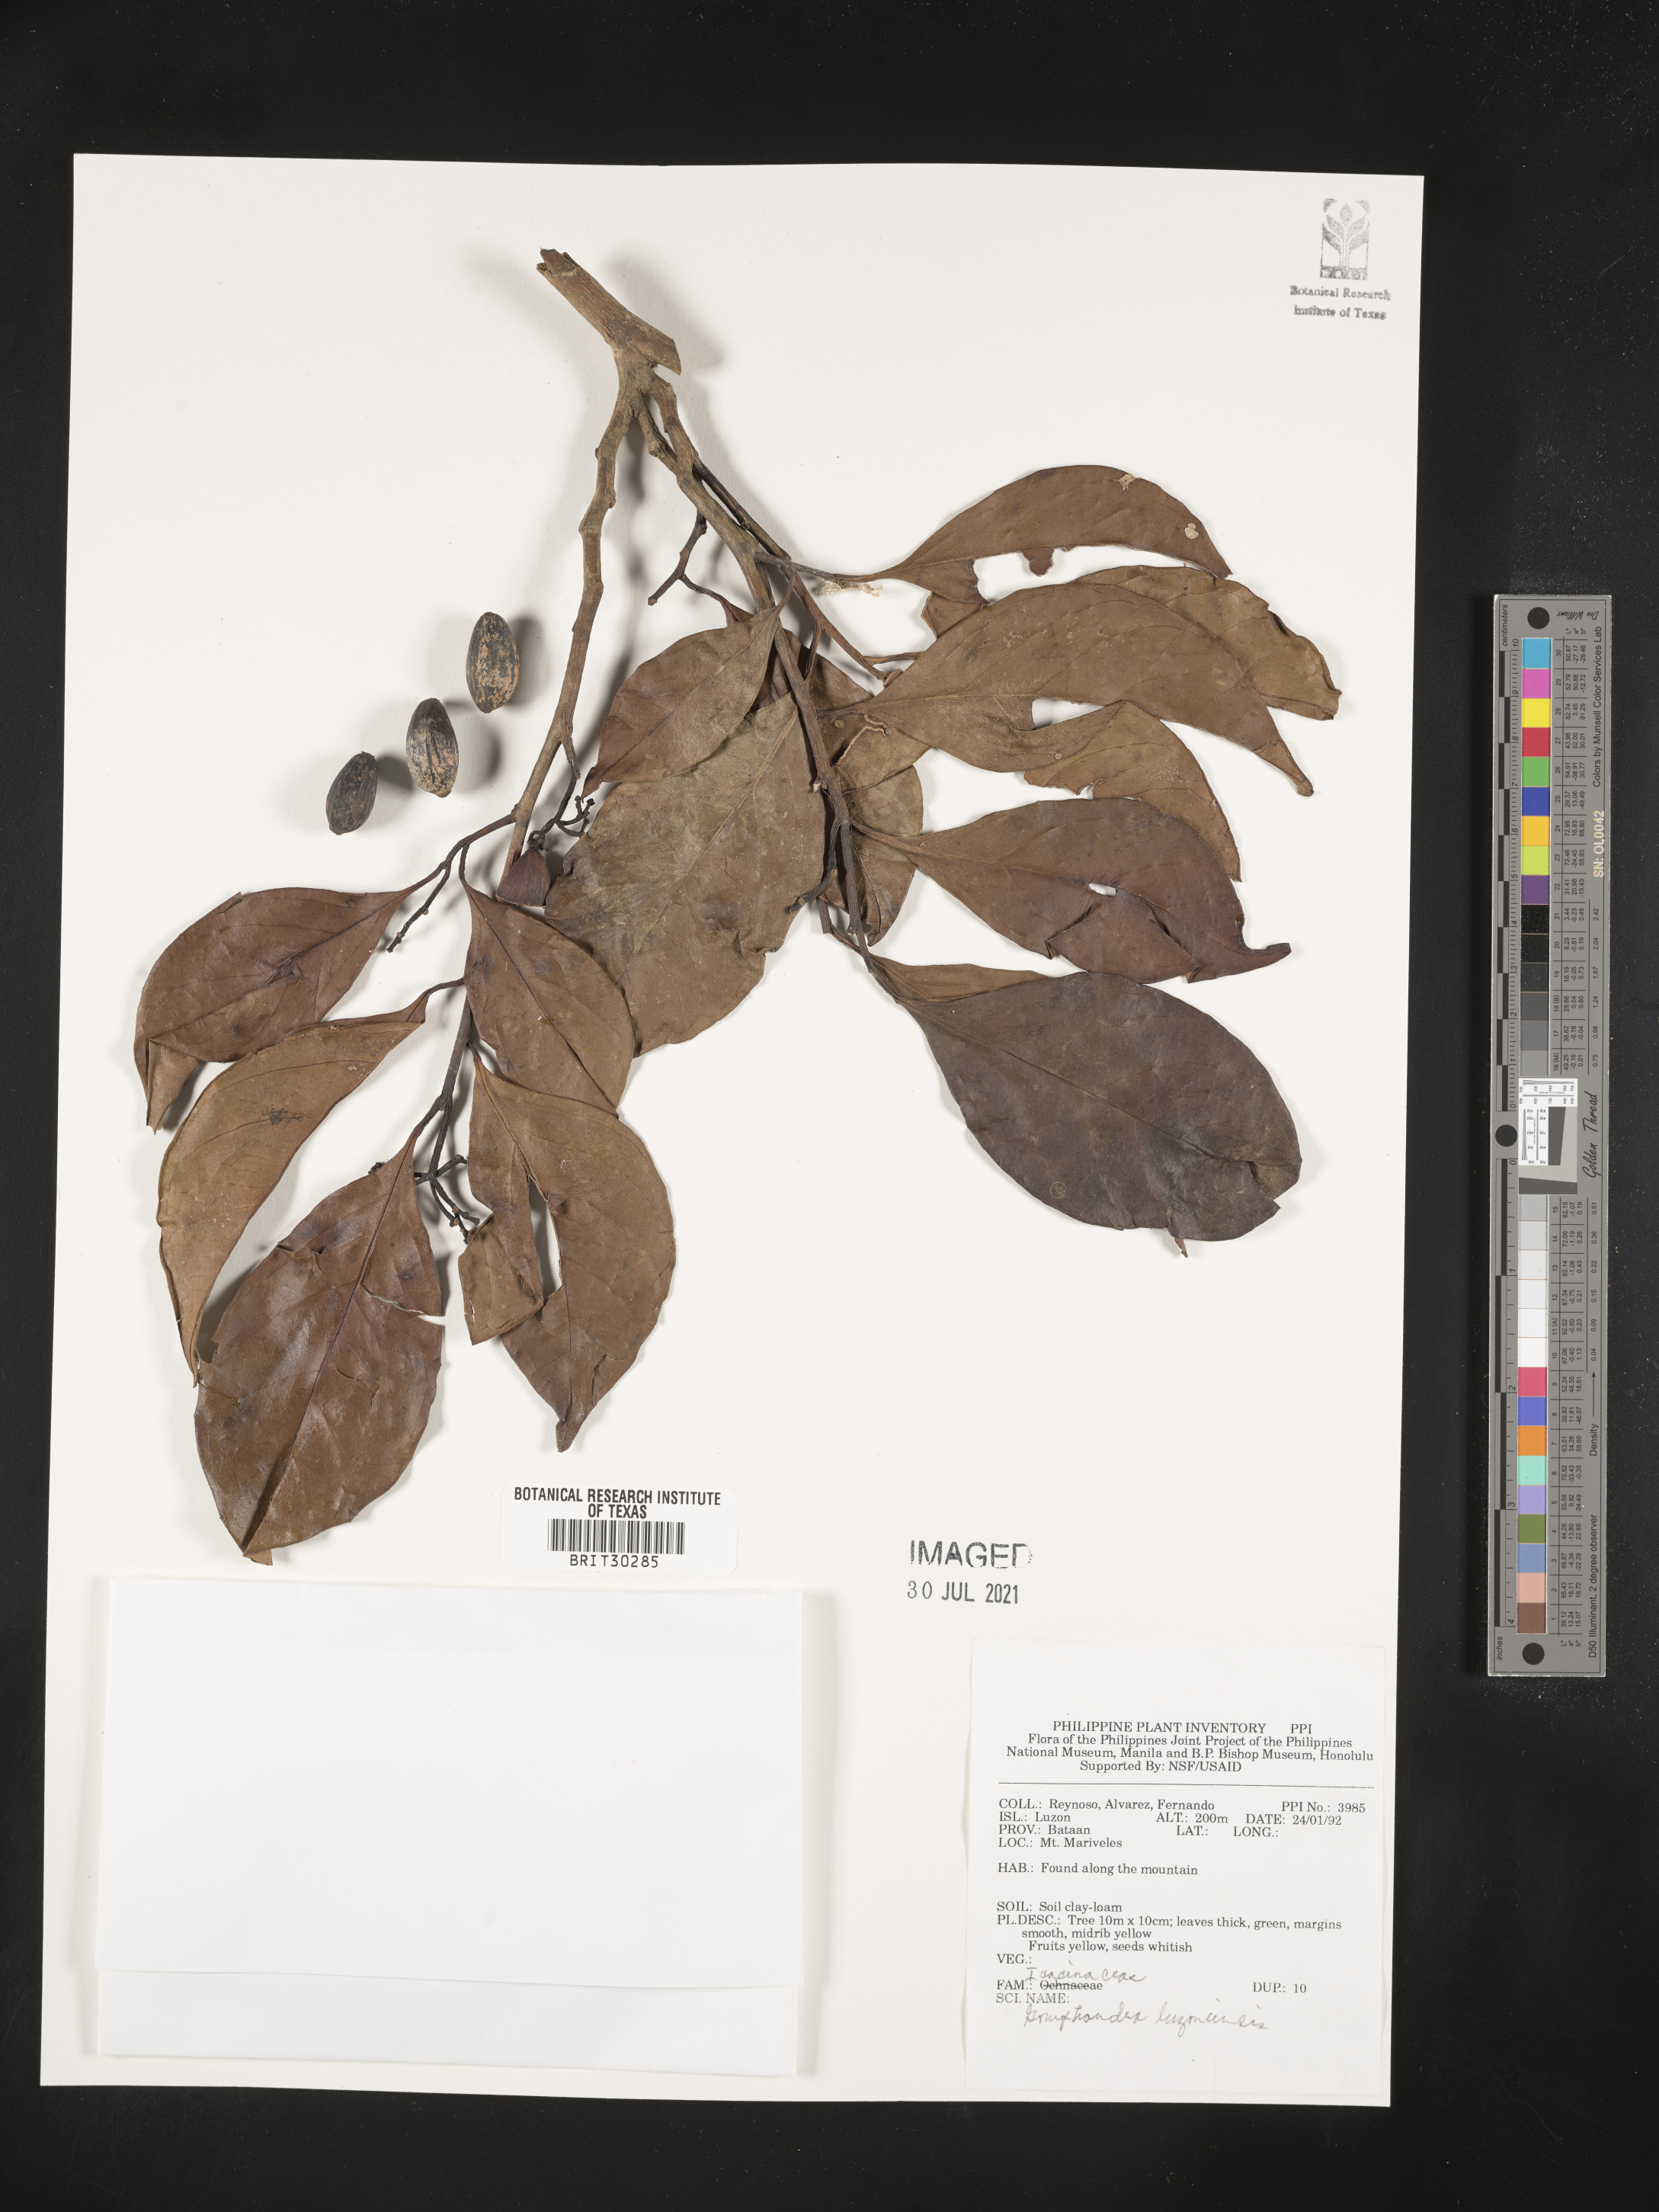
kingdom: Plantae
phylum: Tracheophyta
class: Magnoliopsida
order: Cardiopteridales
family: Stemonuraceae
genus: Gomphandra
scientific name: Gomphandra luzoniensis
